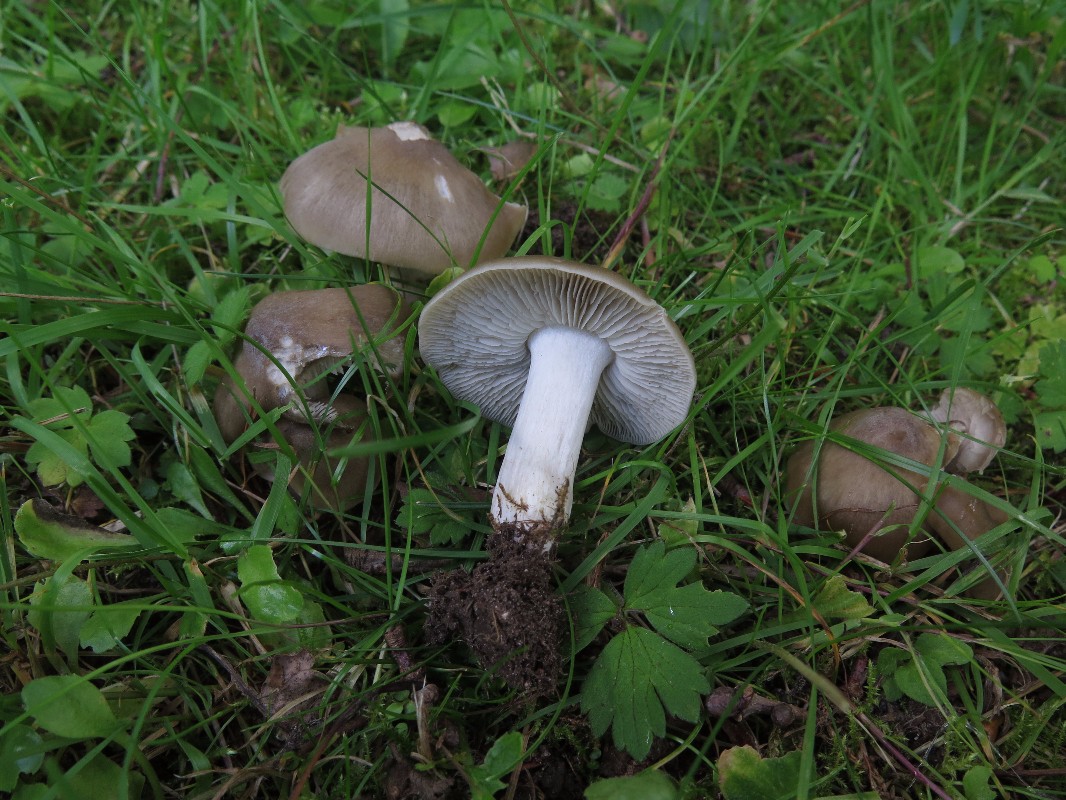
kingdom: Fungi
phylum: Basidiomycota
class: Agaricomycetes
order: Agaricales
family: Entolomataceae
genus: Entoloma
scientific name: Entoloma lividoalbum
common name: lysstokket rødblad
